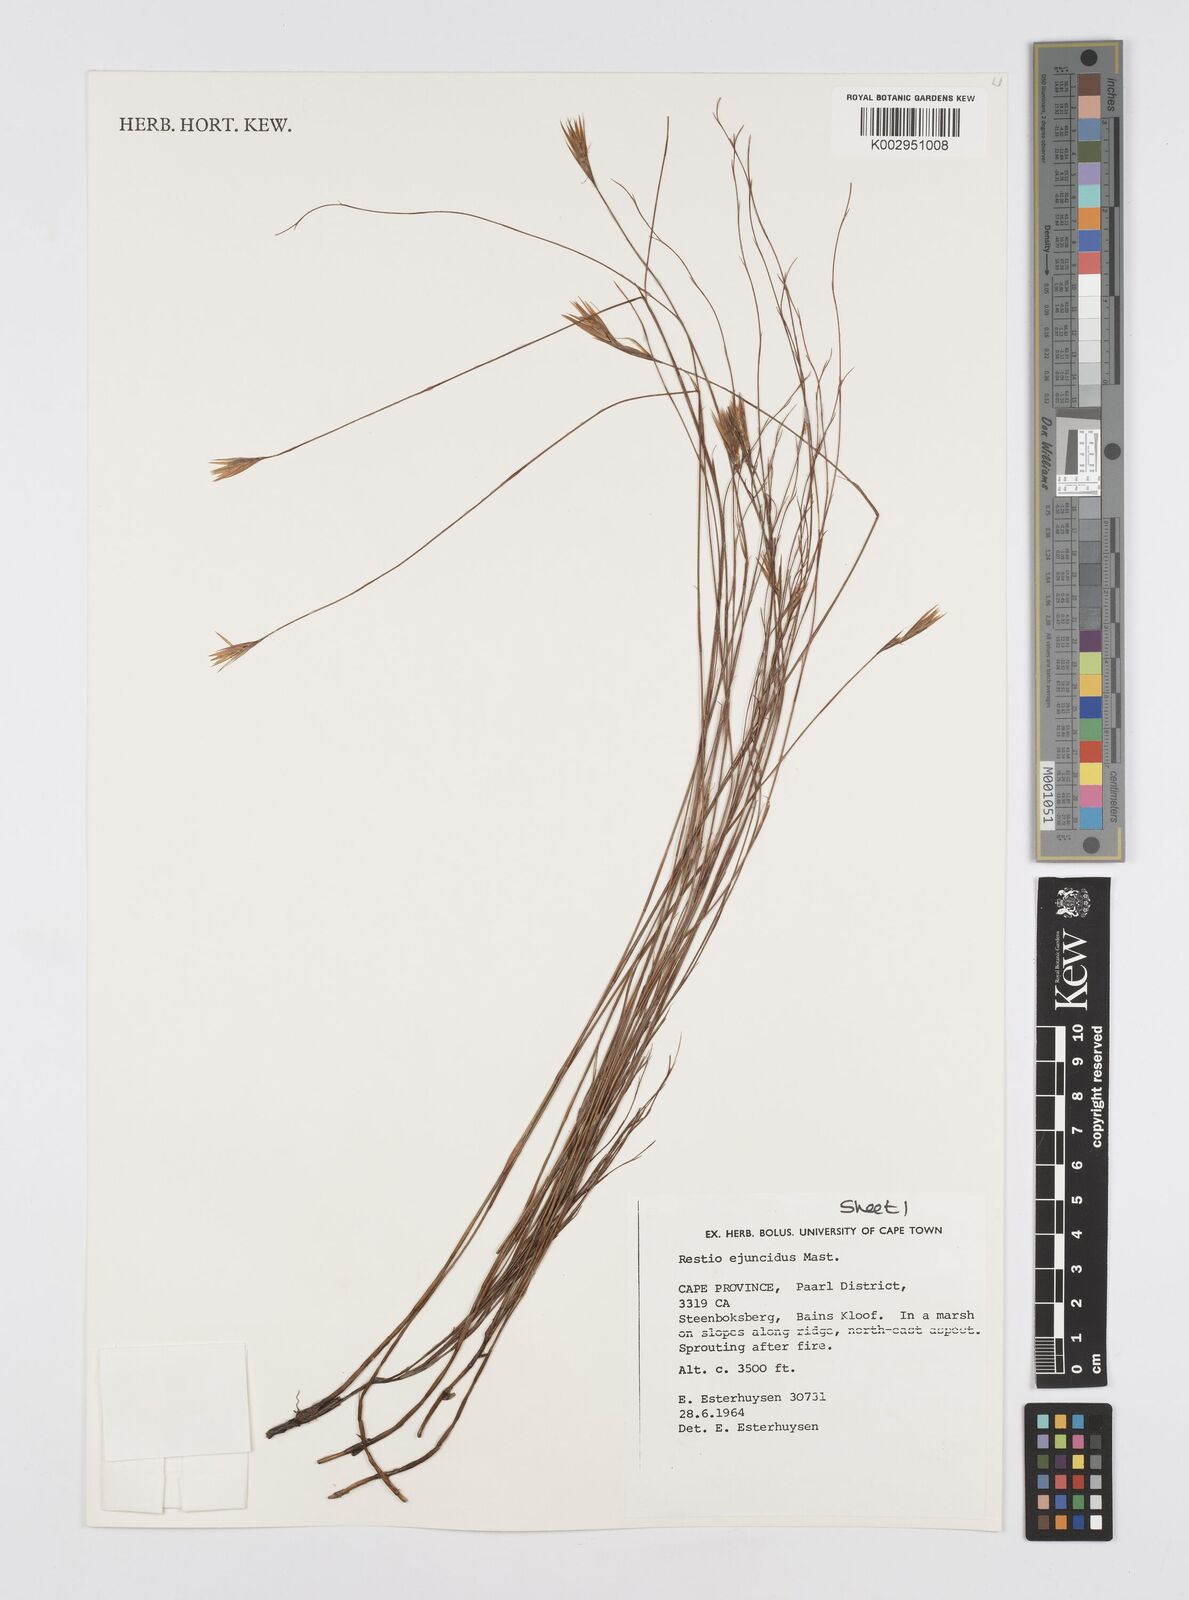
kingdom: Plantae
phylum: Tracheophyta
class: Liliopsida
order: Poales
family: Restionaceae
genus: Restio
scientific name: Restio ejuncidus
